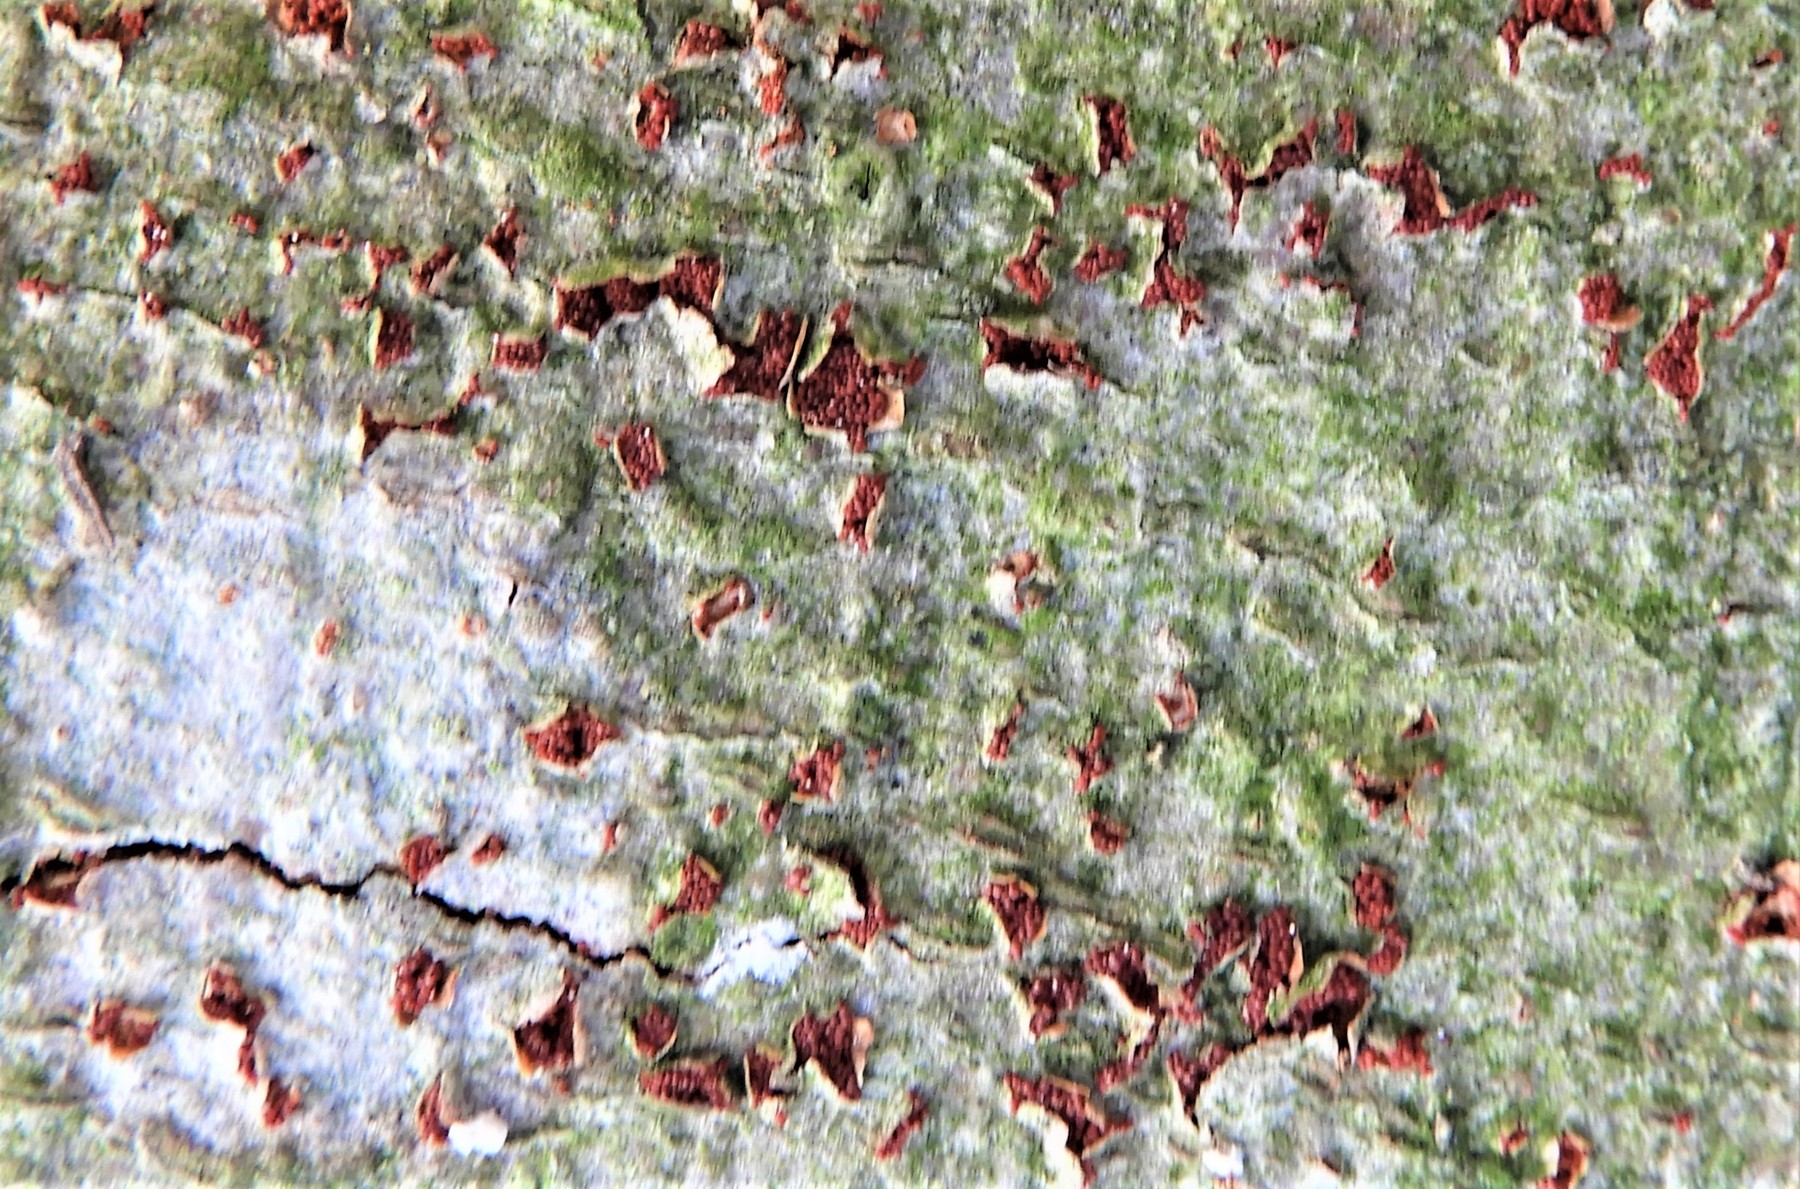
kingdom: Fungi
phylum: Ascomycota
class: Sordariomycetes
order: Hypocreales
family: Nectriaceae
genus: Neonectria
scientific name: Neonectria coccinea
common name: bøgebark-cinnobersvamp
